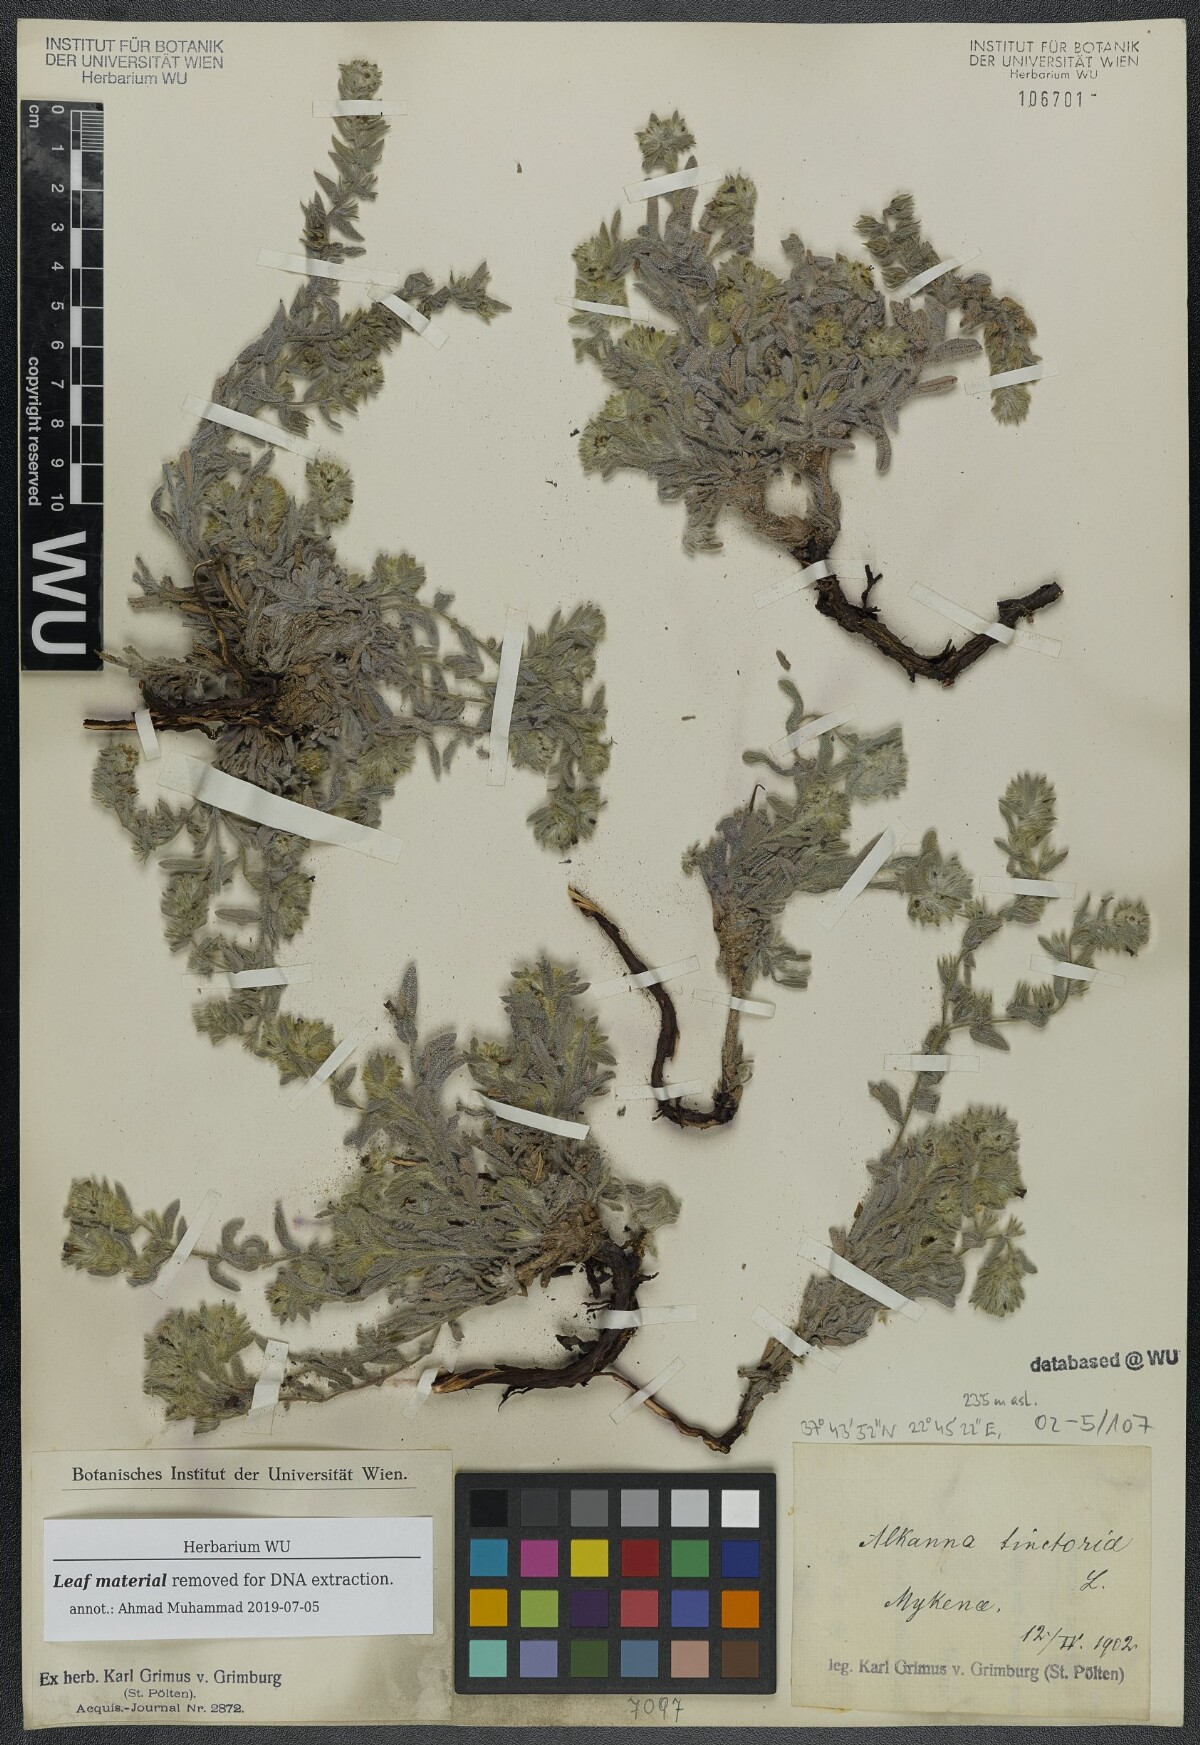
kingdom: Plantae
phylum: Tracheophyta
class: Magnoliopsida
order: Boraginales
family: Boraginaceae
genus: Alkanna
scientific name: Alkanna tinctoria
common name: Dyer's-alkanet
